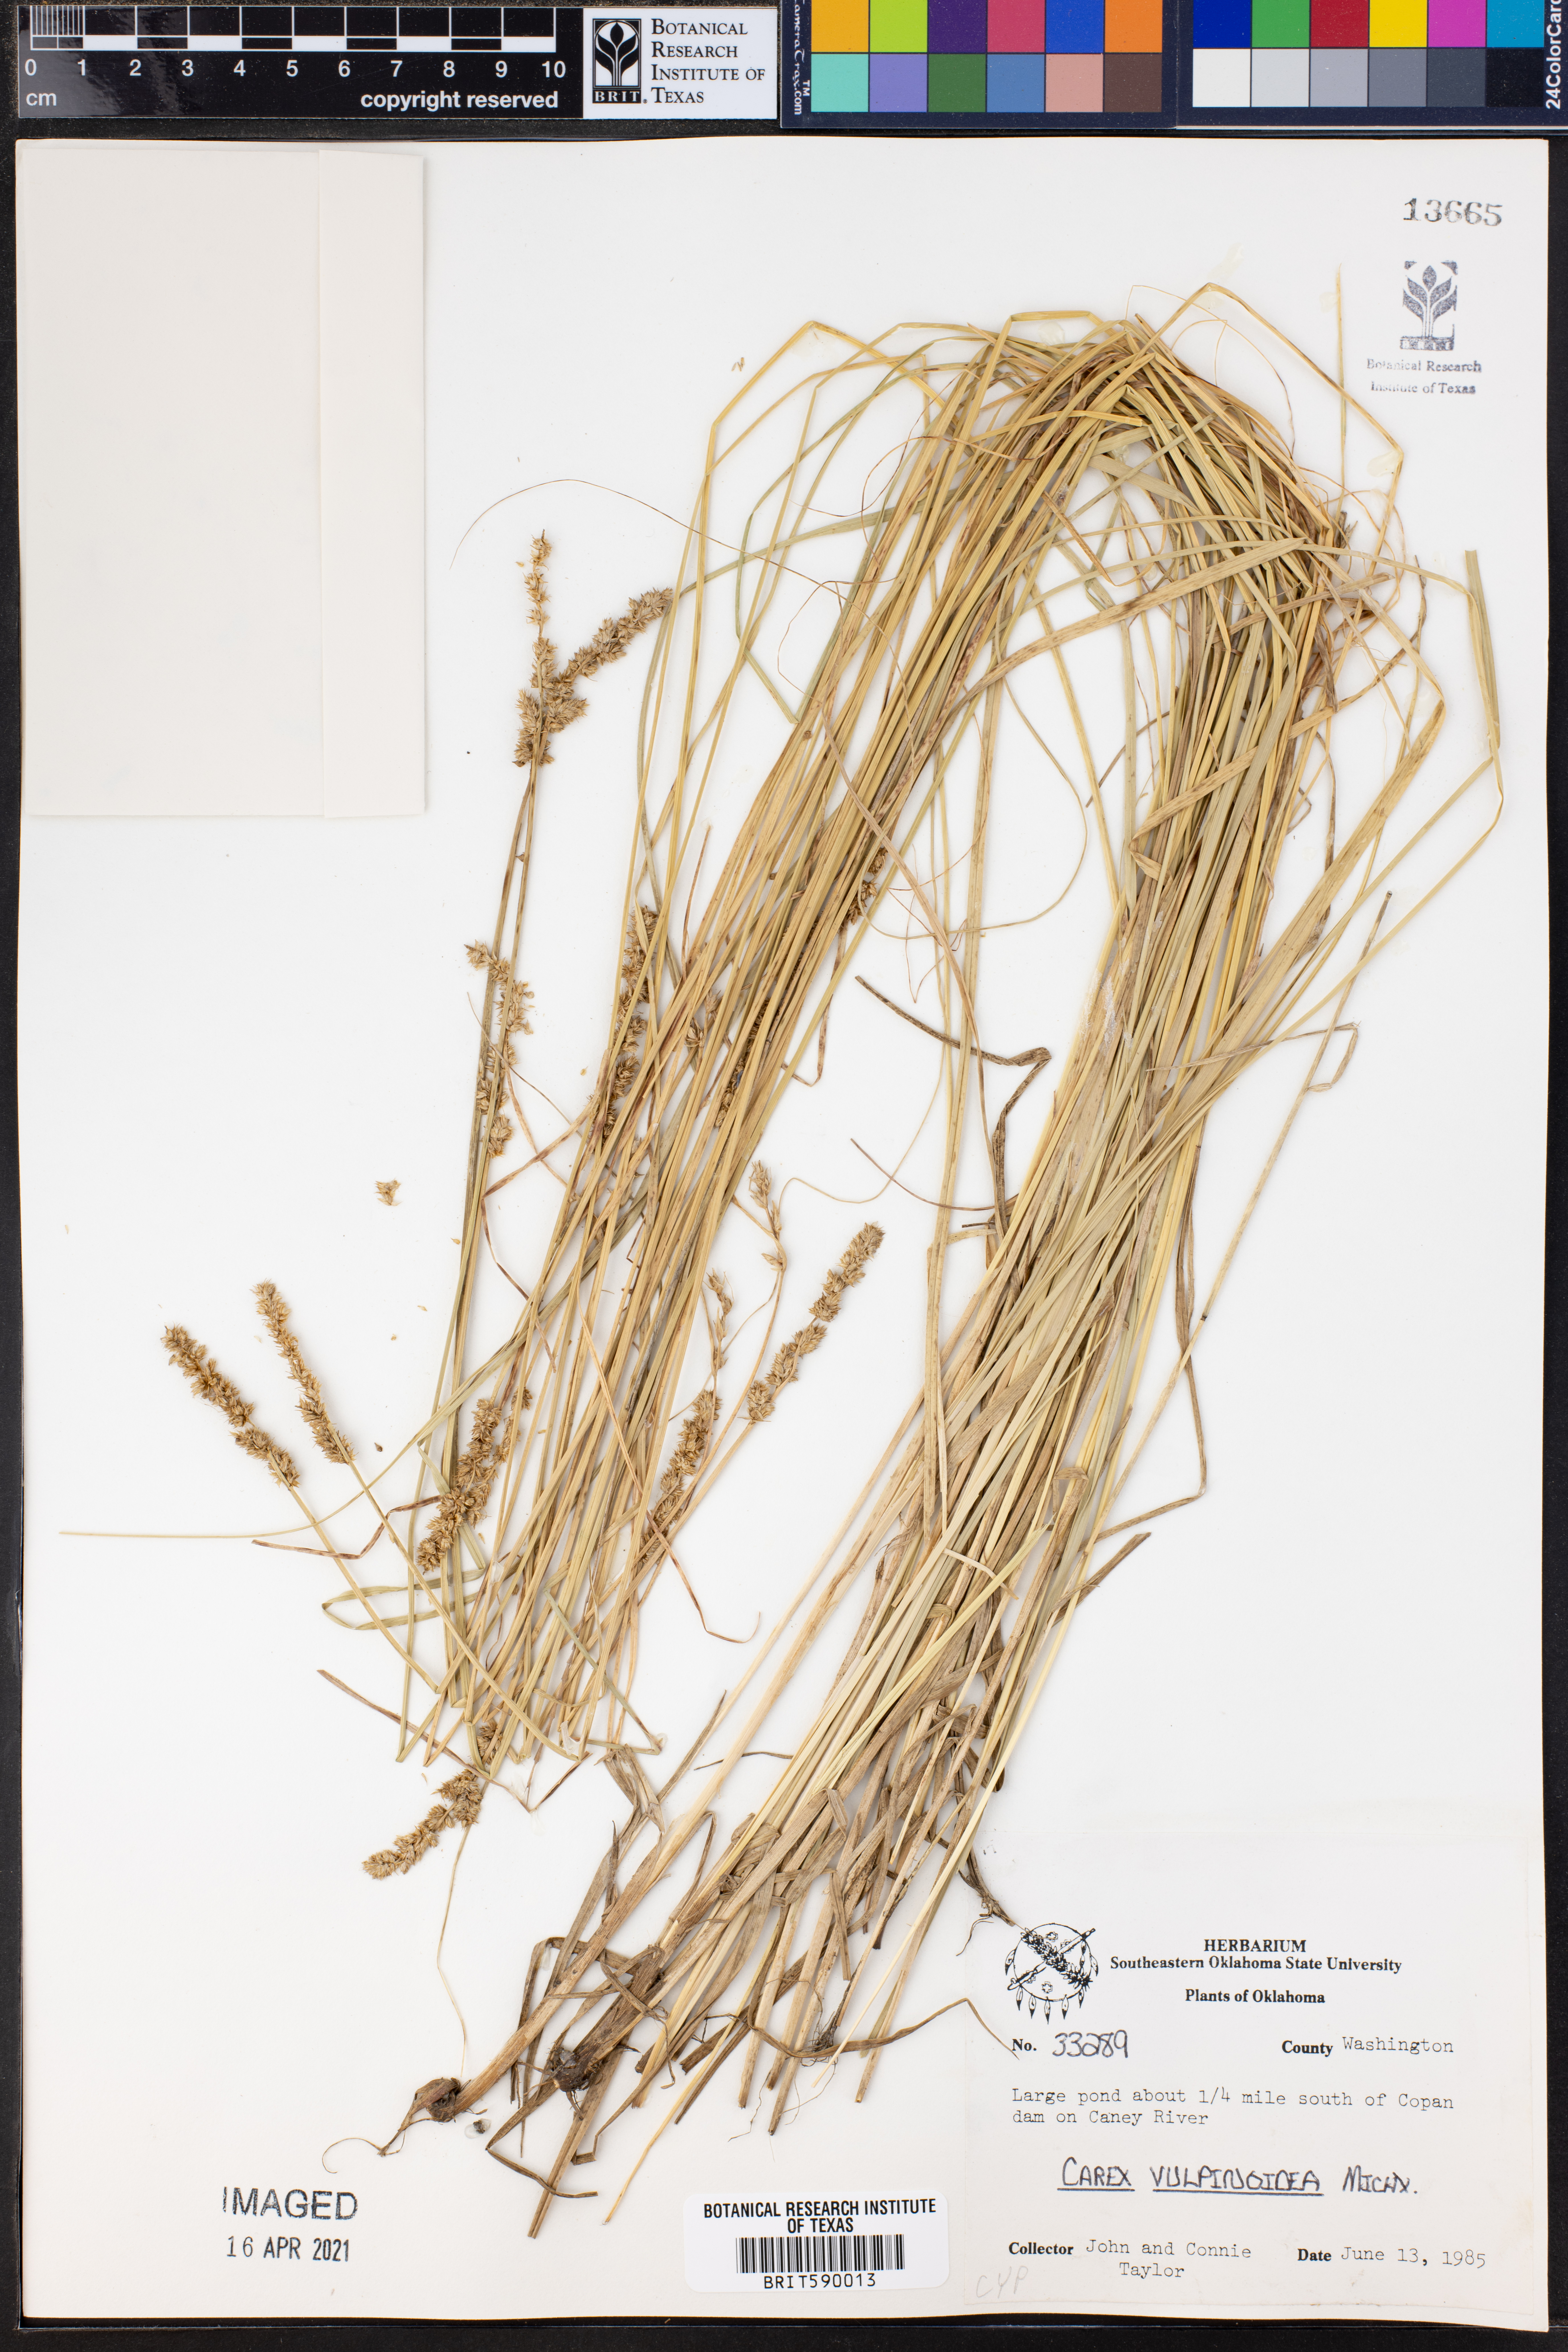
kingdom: Plantae
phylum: Tracheophyta
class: Liliopsida
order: Poales
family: Cyperaceae
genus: Carex
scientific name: Carex vulpinoidea
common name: American fox-sedge
